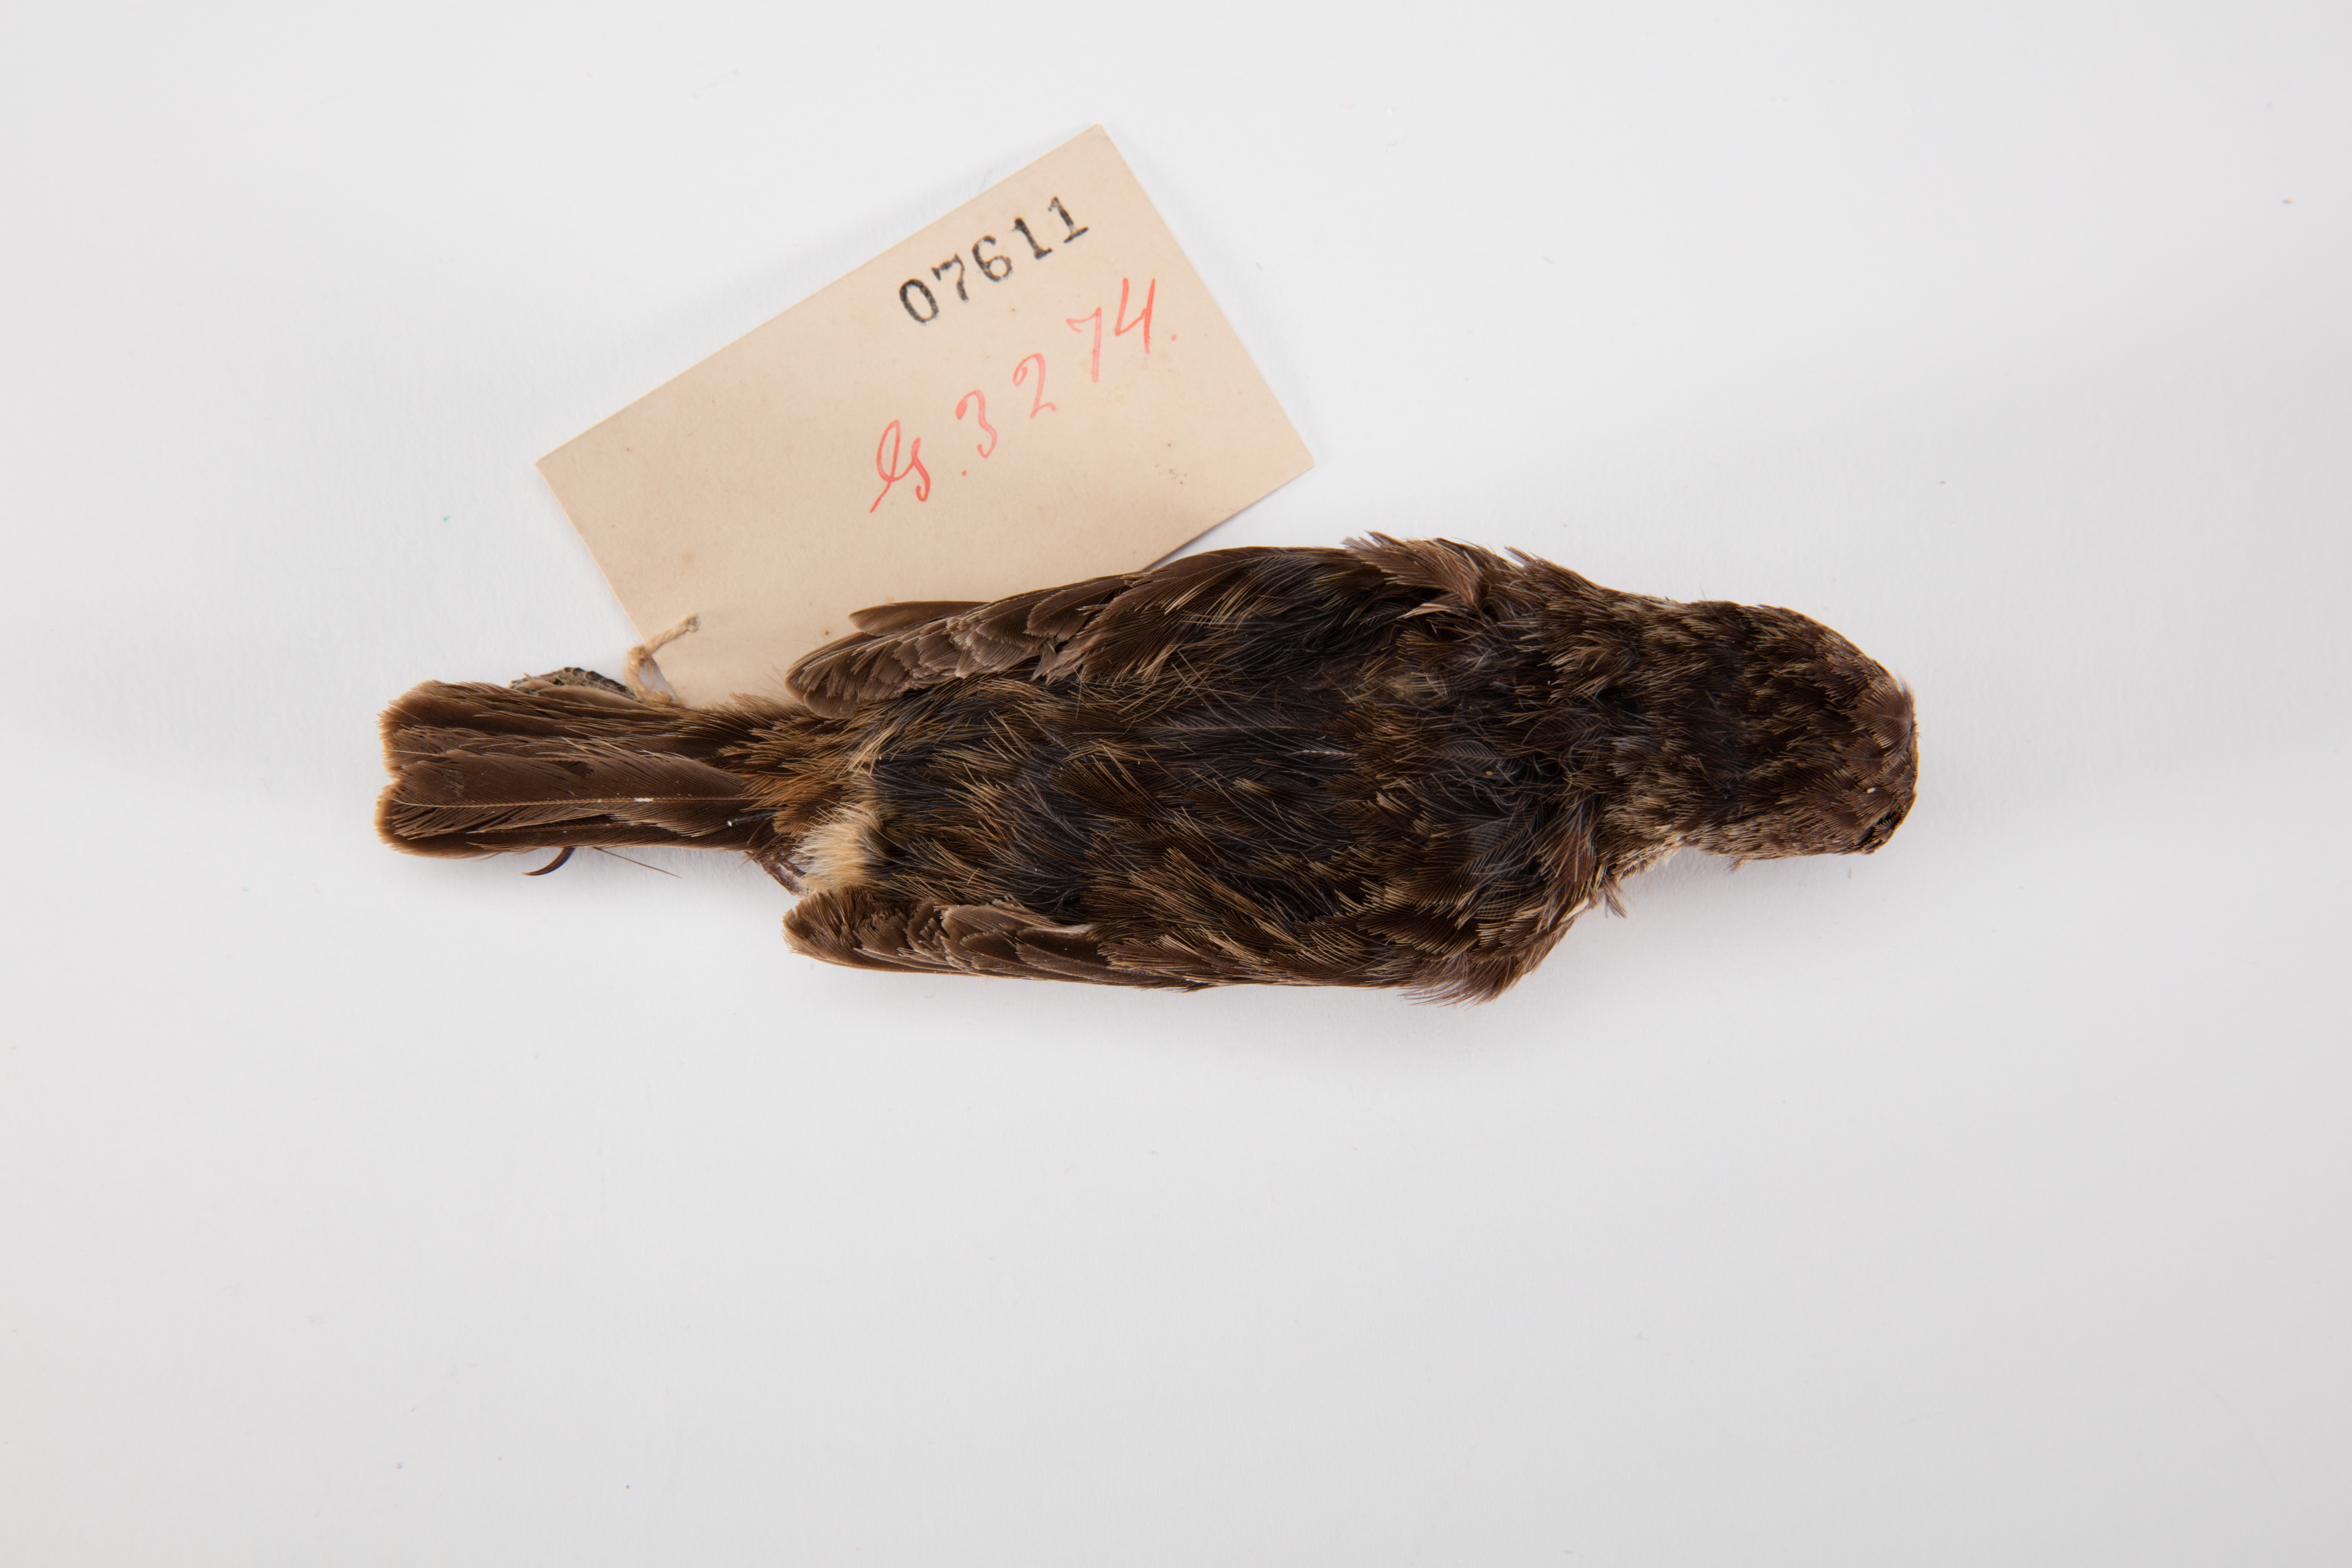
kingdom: Animalia
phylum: Chordata
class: Aves
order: Passeriformes
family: Muscicapidae
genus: Saxicola
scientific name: Saxicola torquatus
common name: African stonechat
